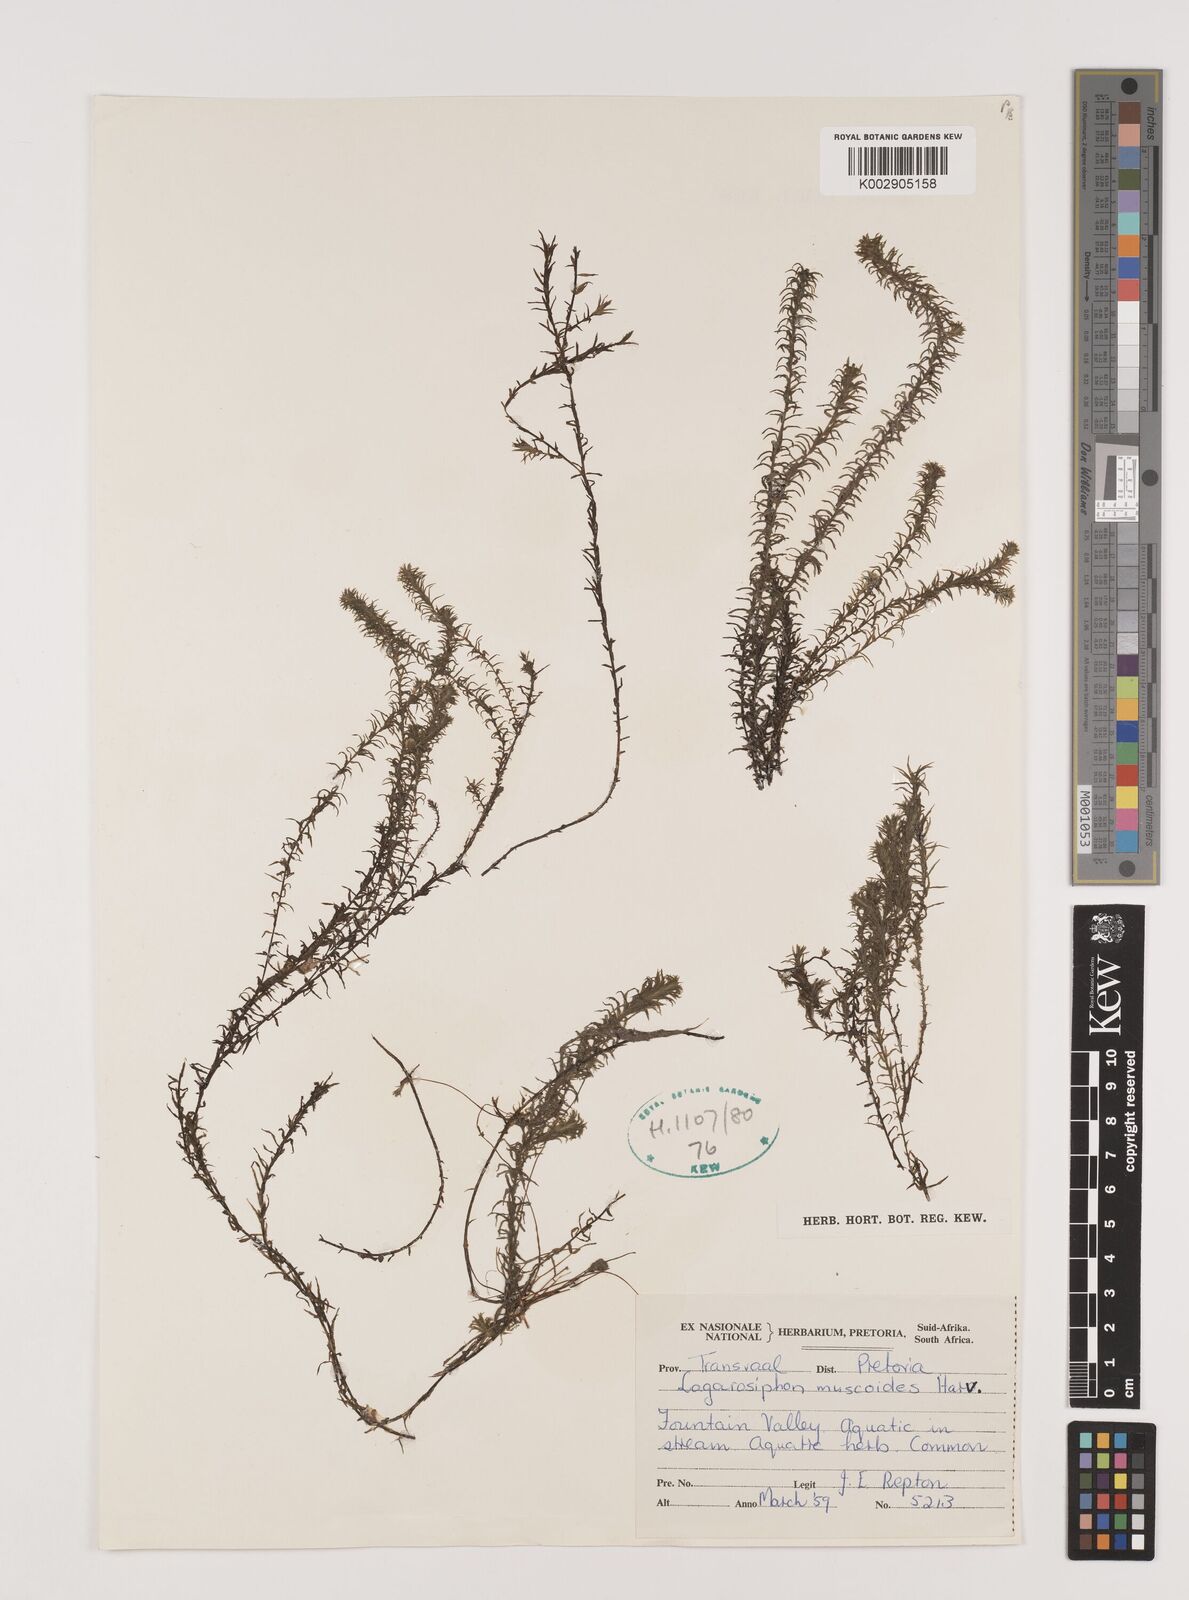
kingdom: Plantae
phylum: Tracheophyta
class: Liliopsida
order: Alismatales
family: Hydrocharitaceae
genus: Lagarosiphon
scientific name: Lagarosiphon muscoides
